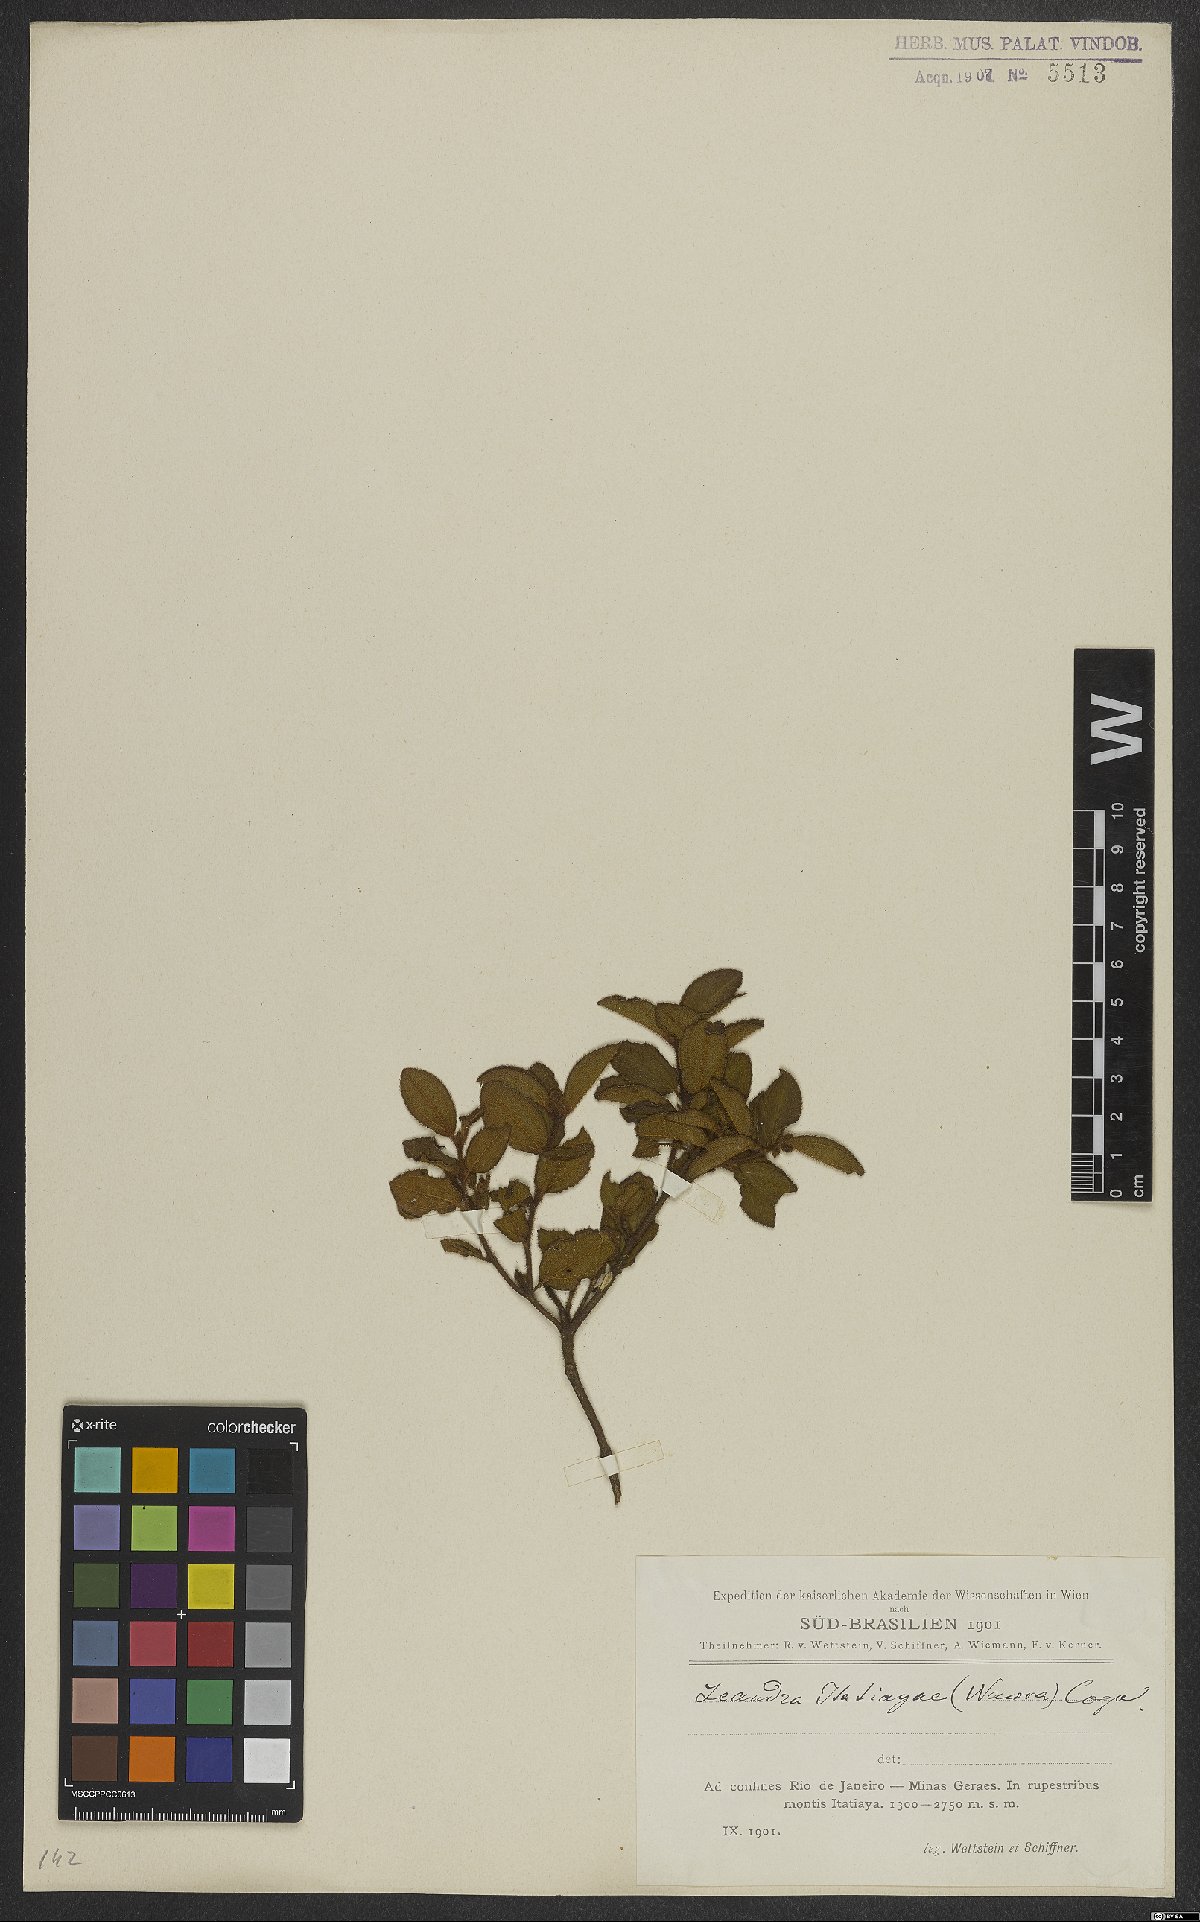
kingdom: Plantae
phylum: Tracheophyta
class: Magnoliopsida
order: Myrtales
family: Melastomataceae
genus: Miconia
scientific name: Miconia itatiaiae
